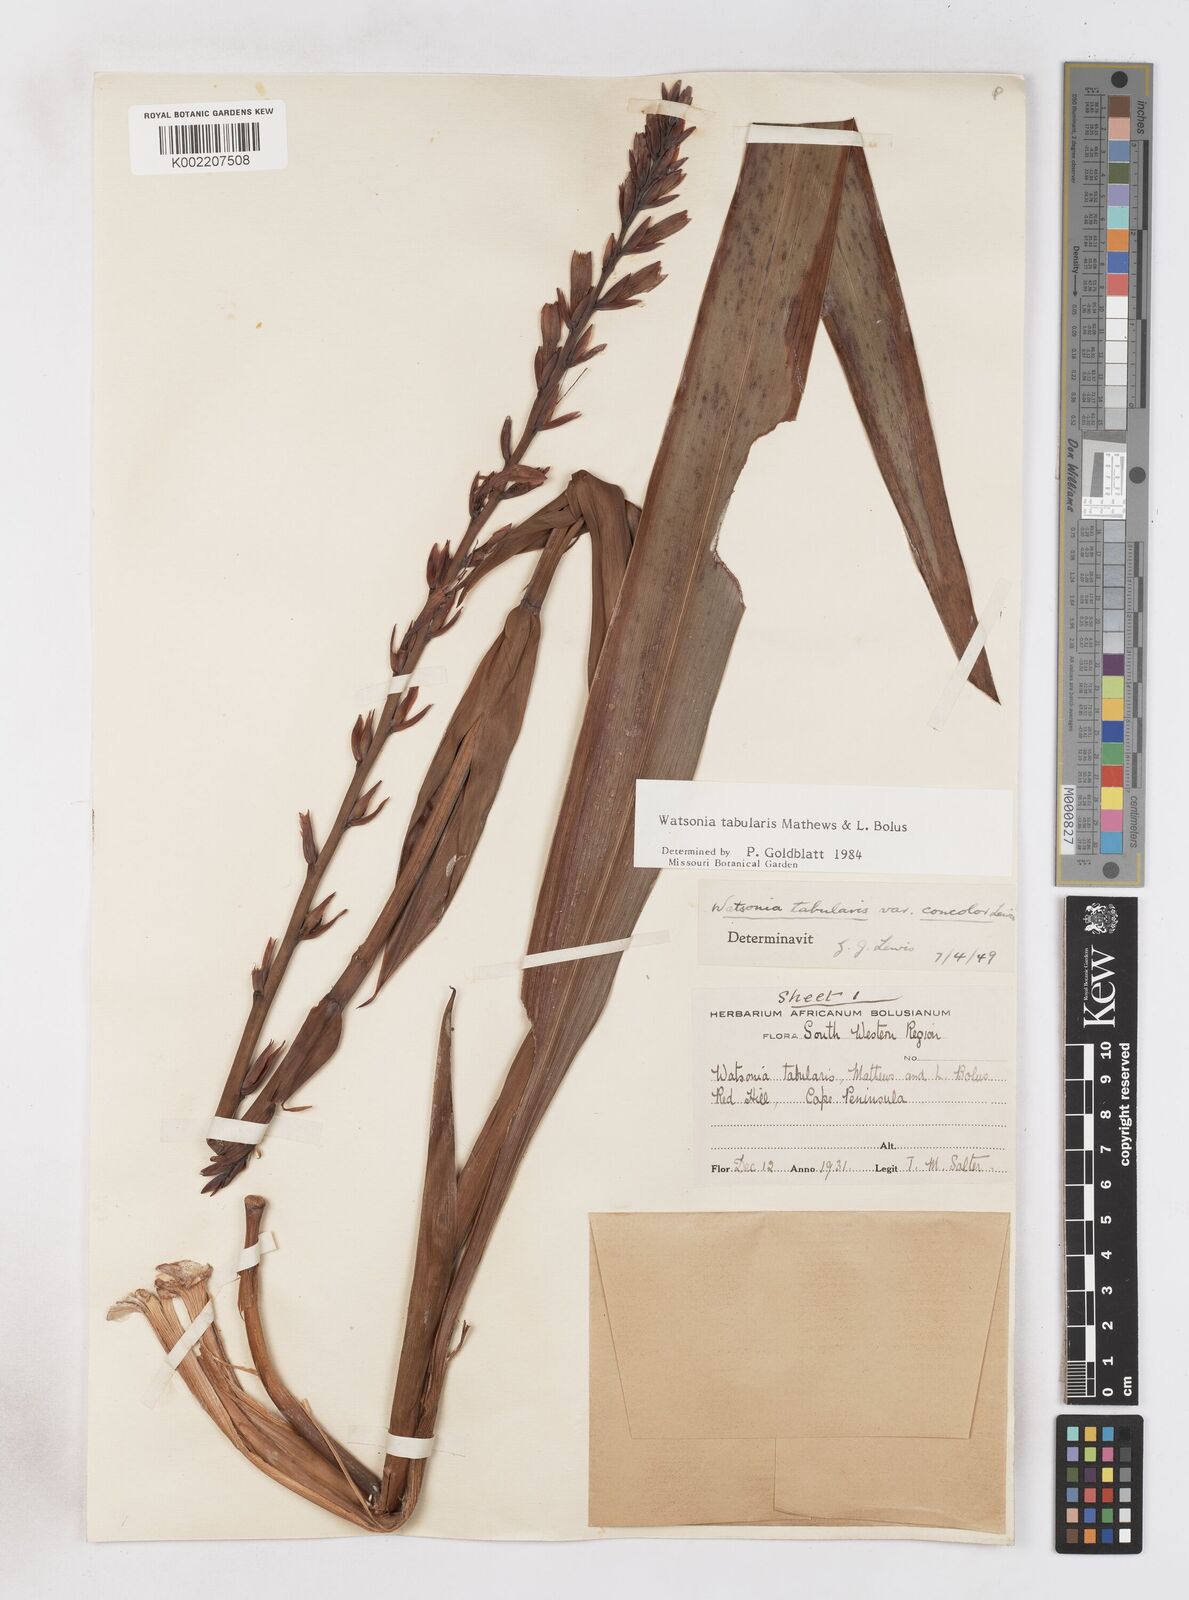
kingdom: Plantae
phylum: Tracheophyta
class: Liliopsida
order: Asparagales
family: Iridaceae
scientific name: Iridaceae
